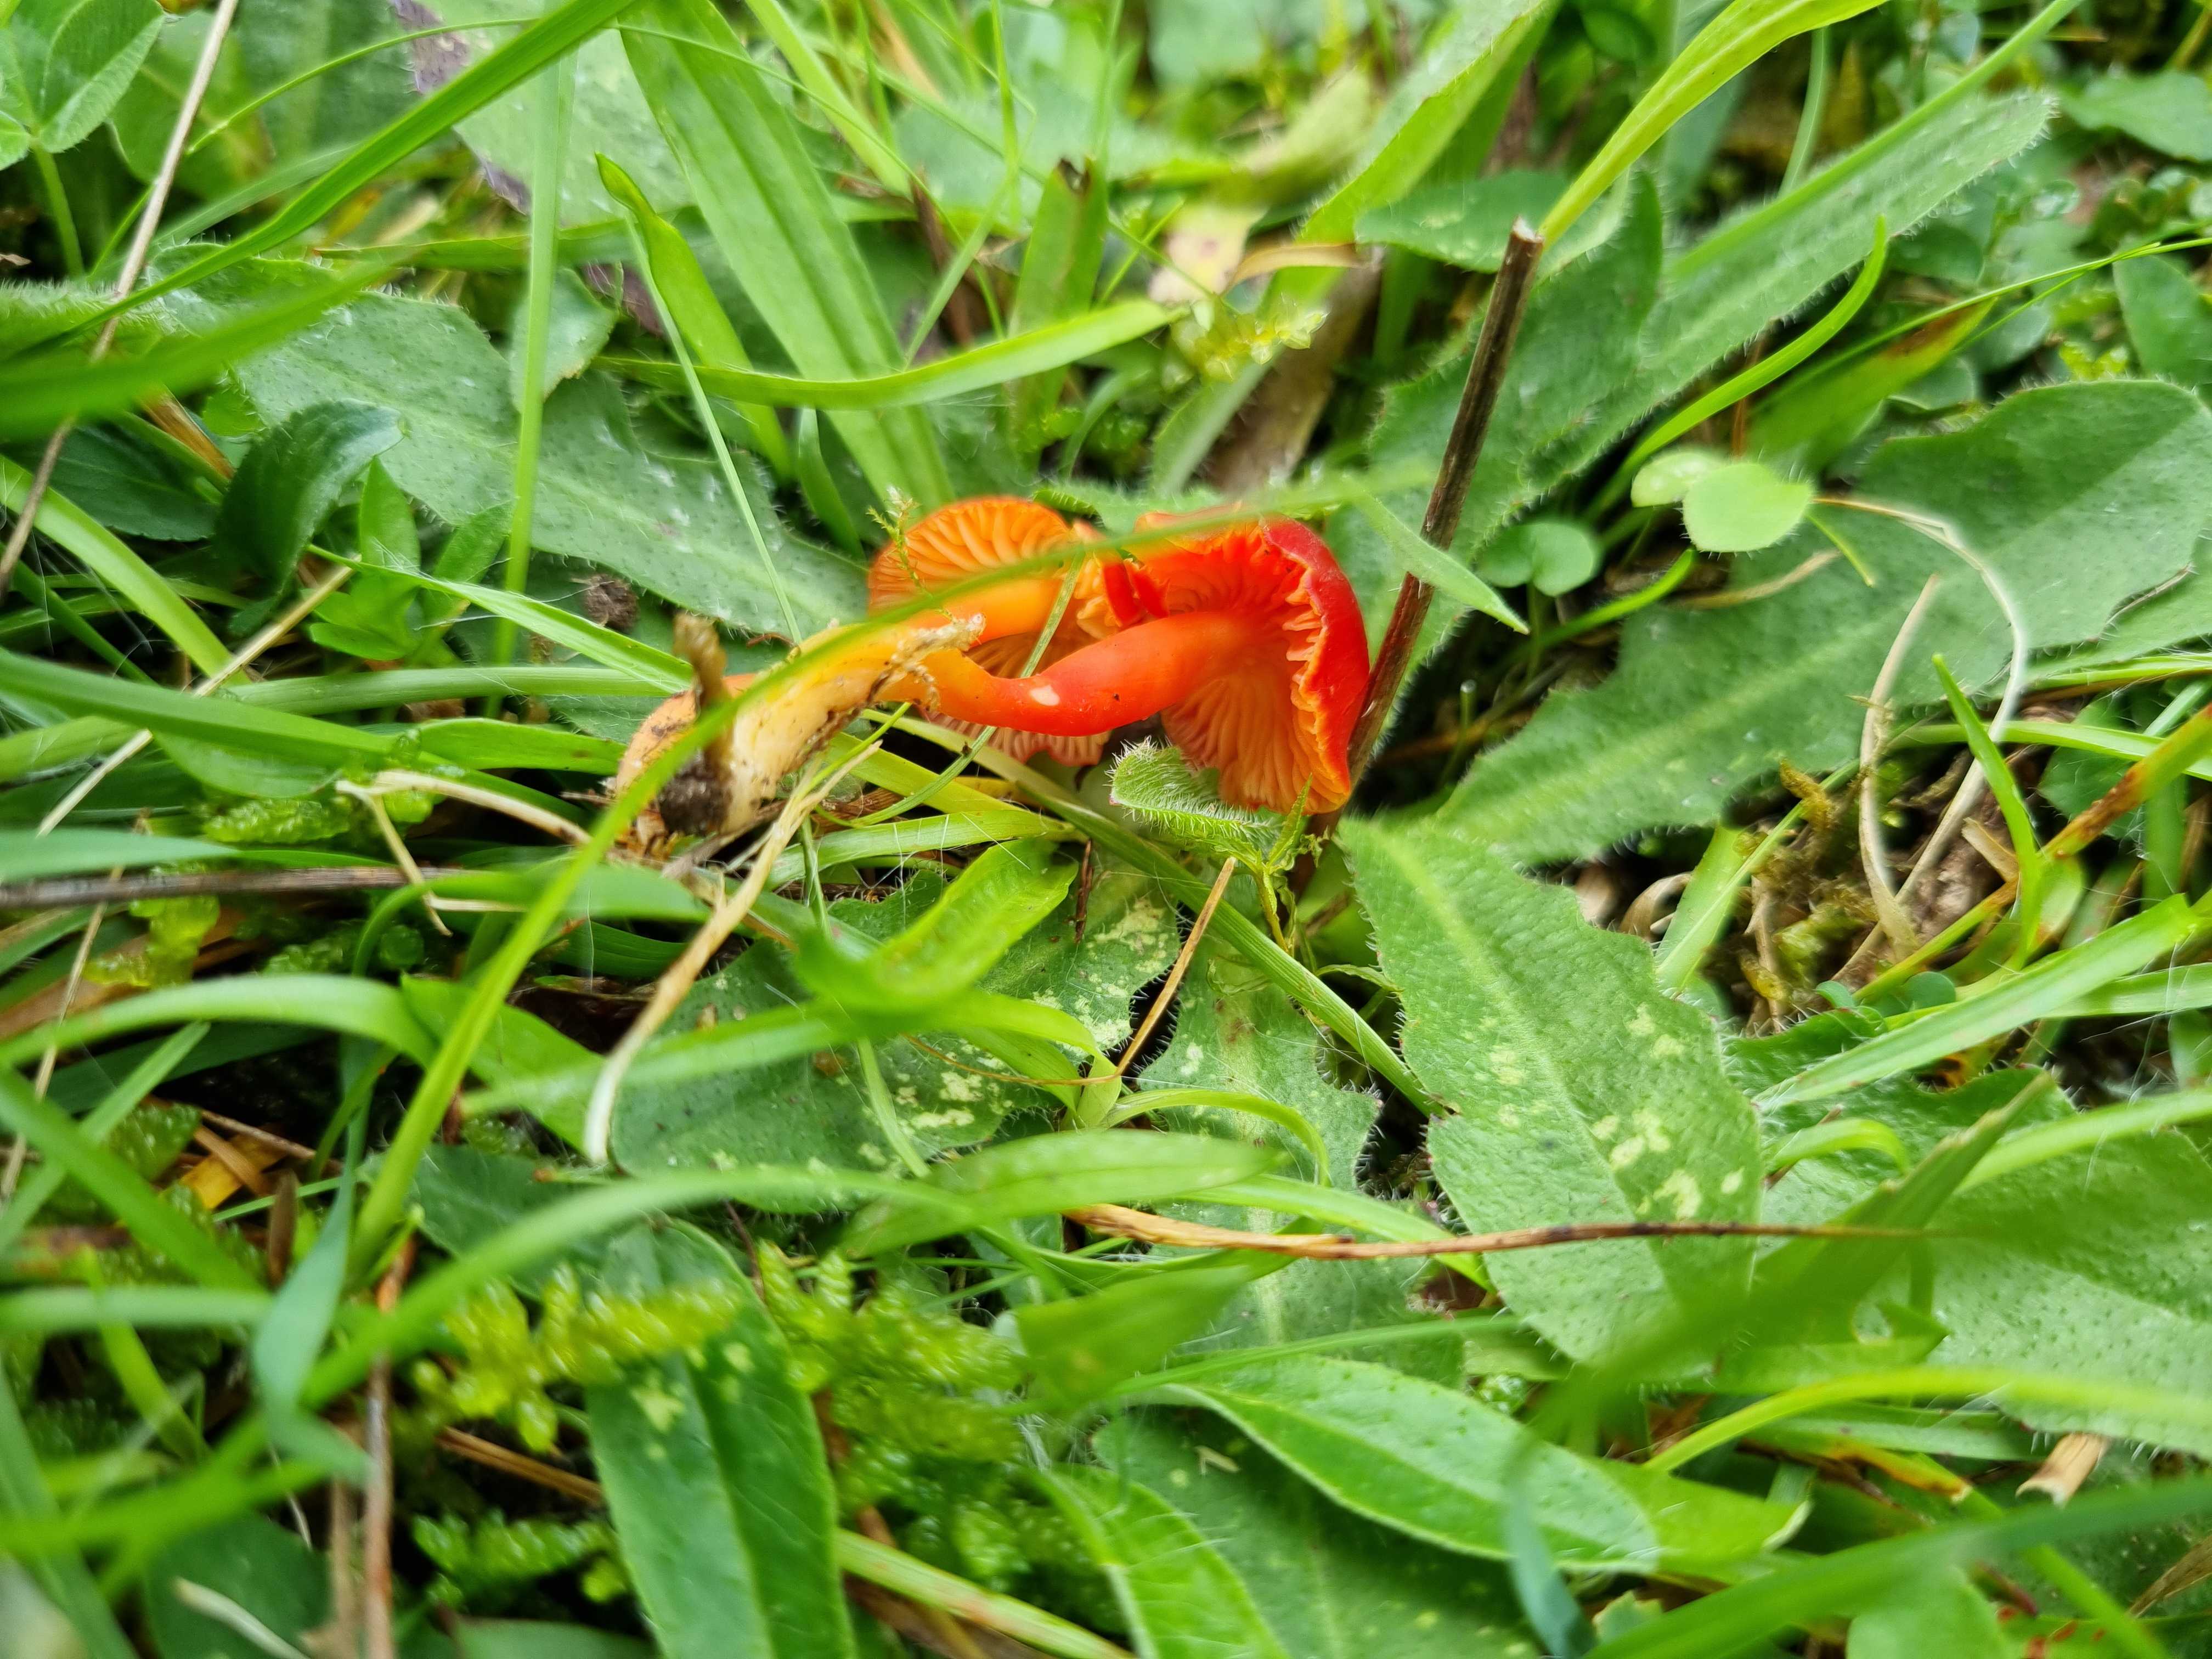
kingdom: Fungi
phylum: Basidiomycota
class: Agaricomycetes
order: Agaricales
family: Hygrophoraceae
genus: Hygrocybe
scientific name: Hygrocybe phaeococcinea
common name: sortdugget vokshat
